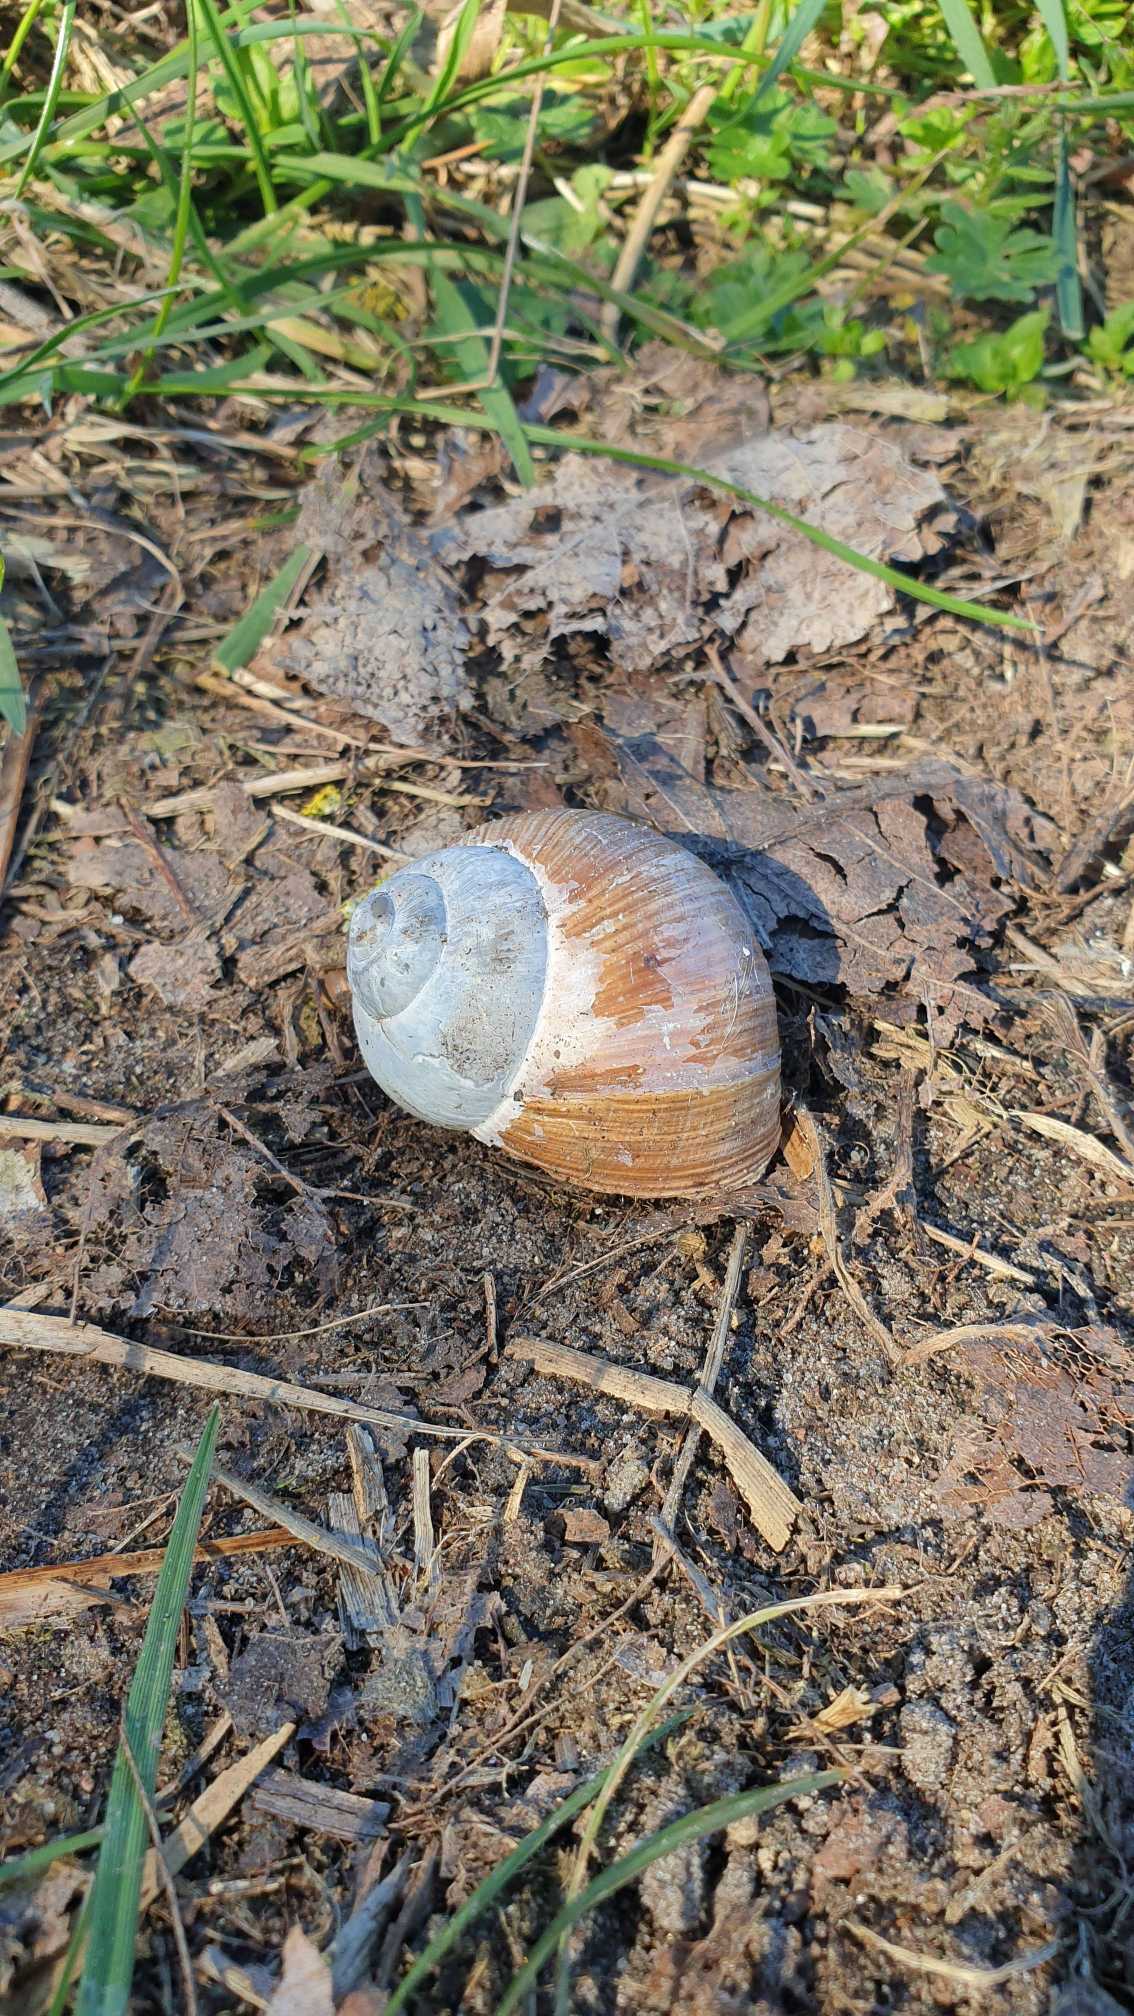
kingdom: Animalia
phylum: Mollusca
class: Gastropoda
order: Stylommatophora
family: Helicidae
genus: Helix
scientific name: Helix pomatia
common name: Vinbjergsnegl
